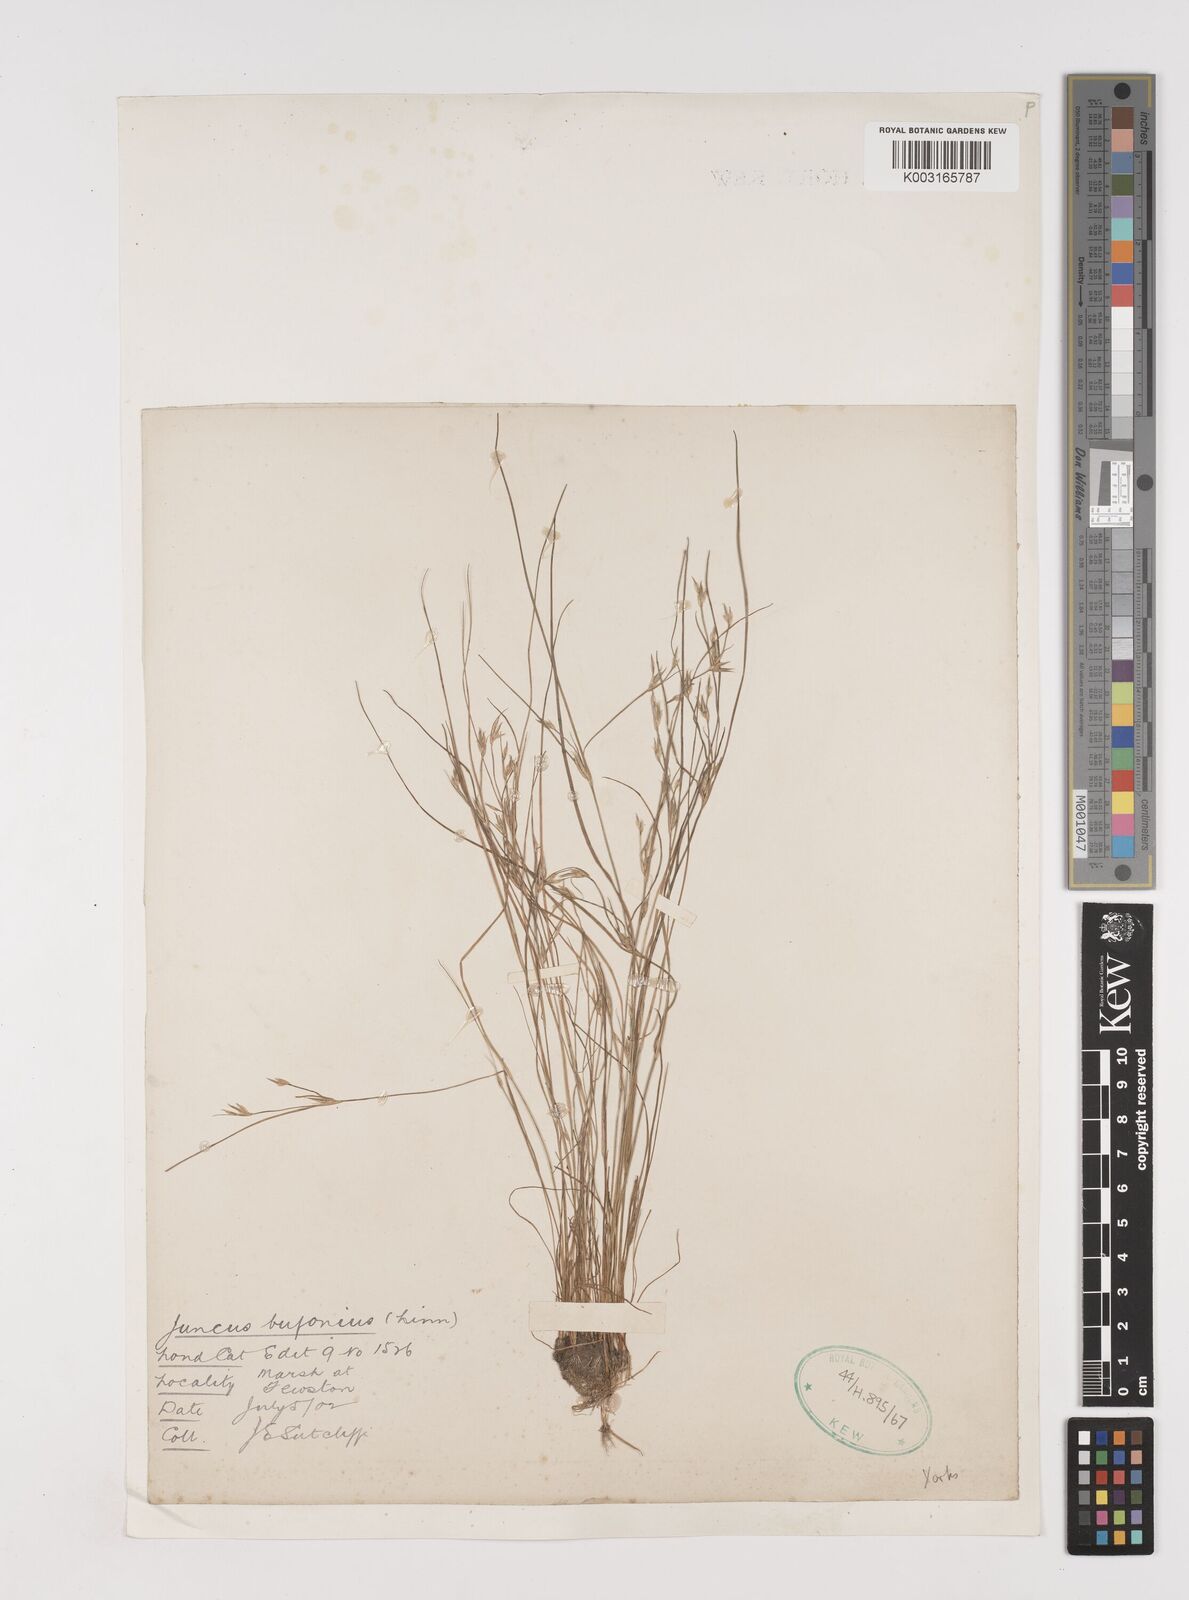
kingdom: Plantae
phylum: Tracheophyta
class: Liliopsida
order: Poales
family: Juncaceae
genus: Juncus
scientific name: Juncus bufonius
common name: Toad rush
